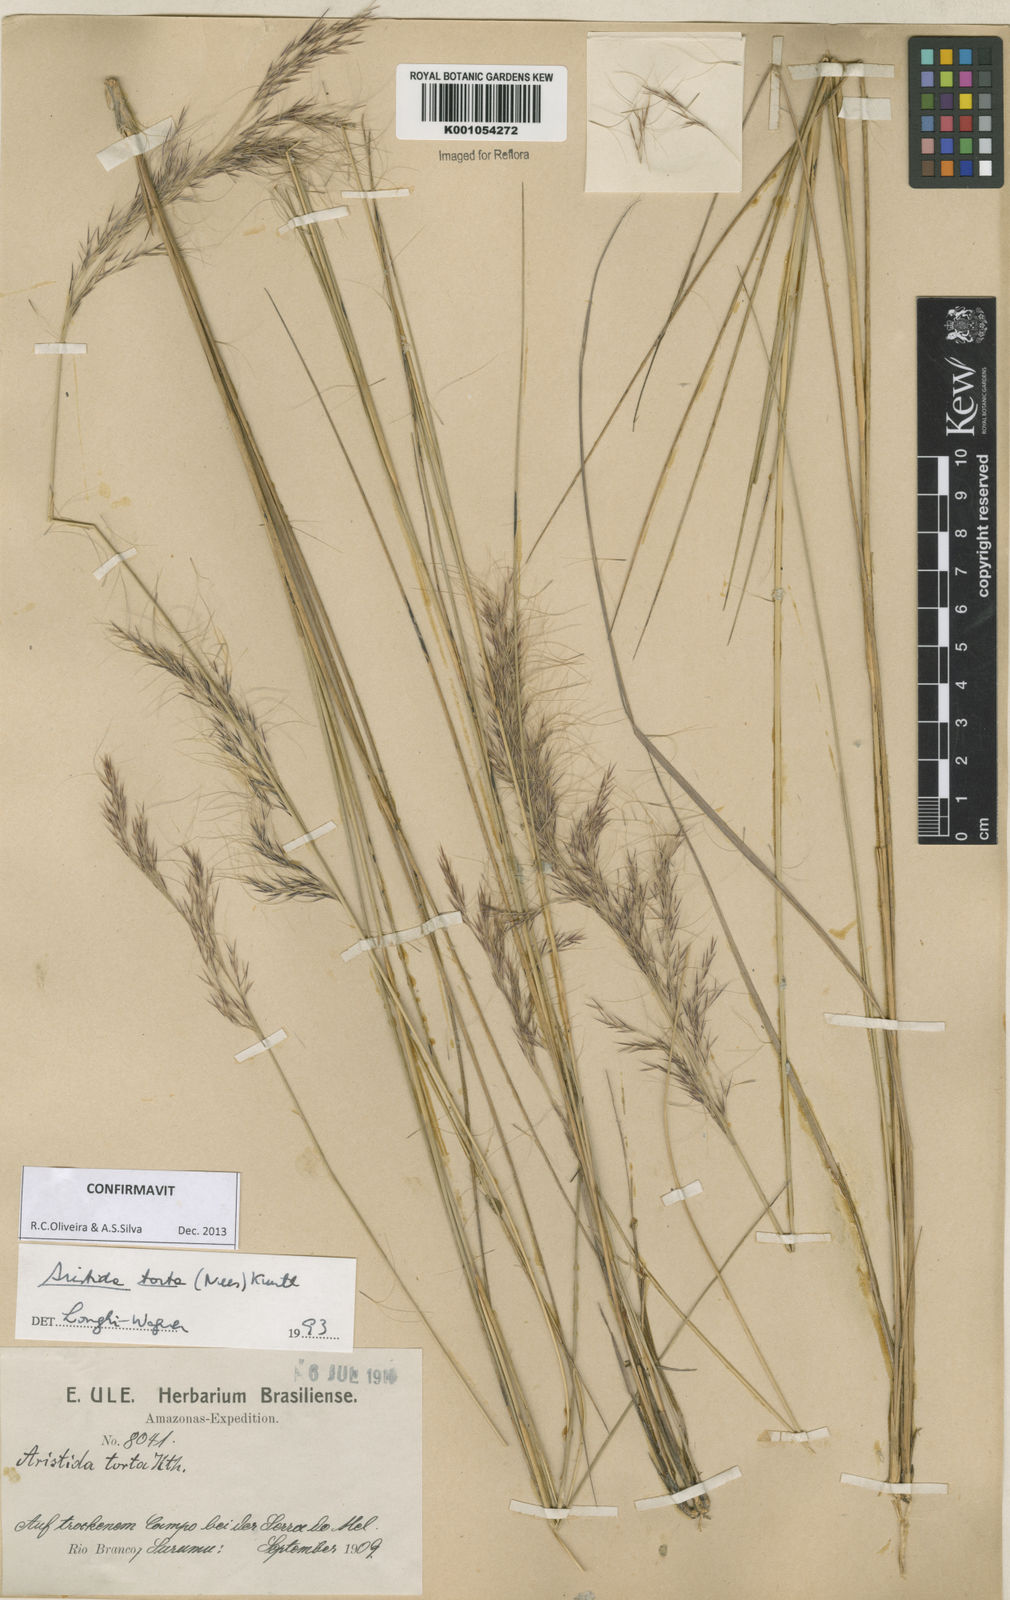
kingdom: Plantae
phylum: Tracheophyta
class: Liliopsida
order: Poales
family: Poaceae
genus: Aristida
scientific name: Aristida torta
